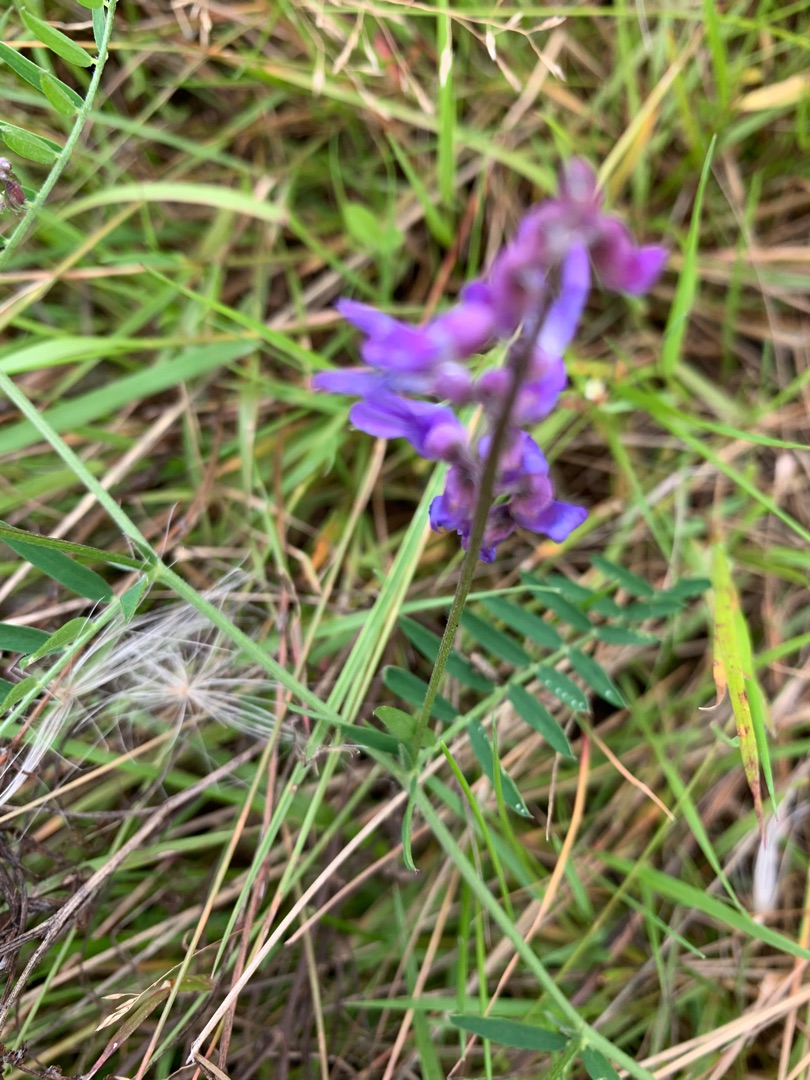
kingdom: Plantae
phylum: Tracheophyta
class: Magnoliopsida
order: Fabales
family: Fabaceae
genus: Vicia
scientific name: Vicia cracca
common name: Muse-vikke
